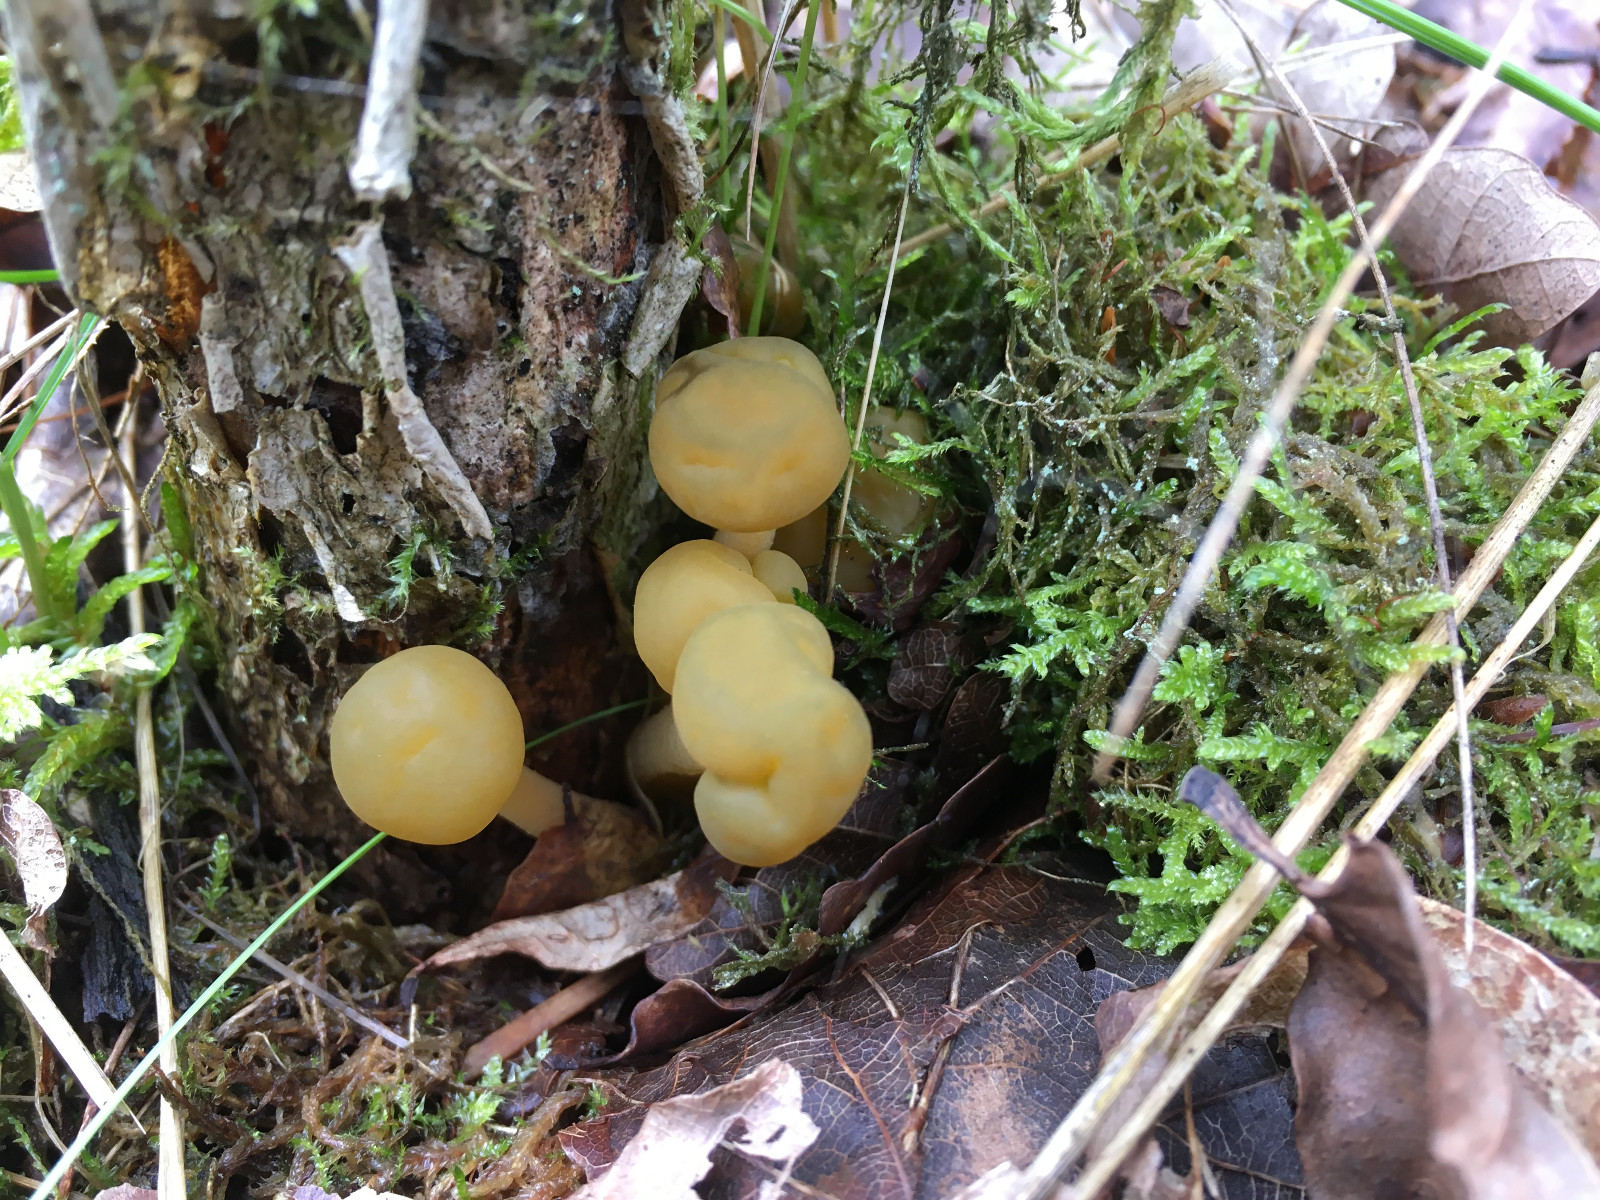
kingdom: Fungi
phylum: Ascomycota
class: Leotiomycetes
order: Leotiales
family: Leotiaceae
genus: Leotia
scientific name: Leotia lubrica
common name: ravsvamp
